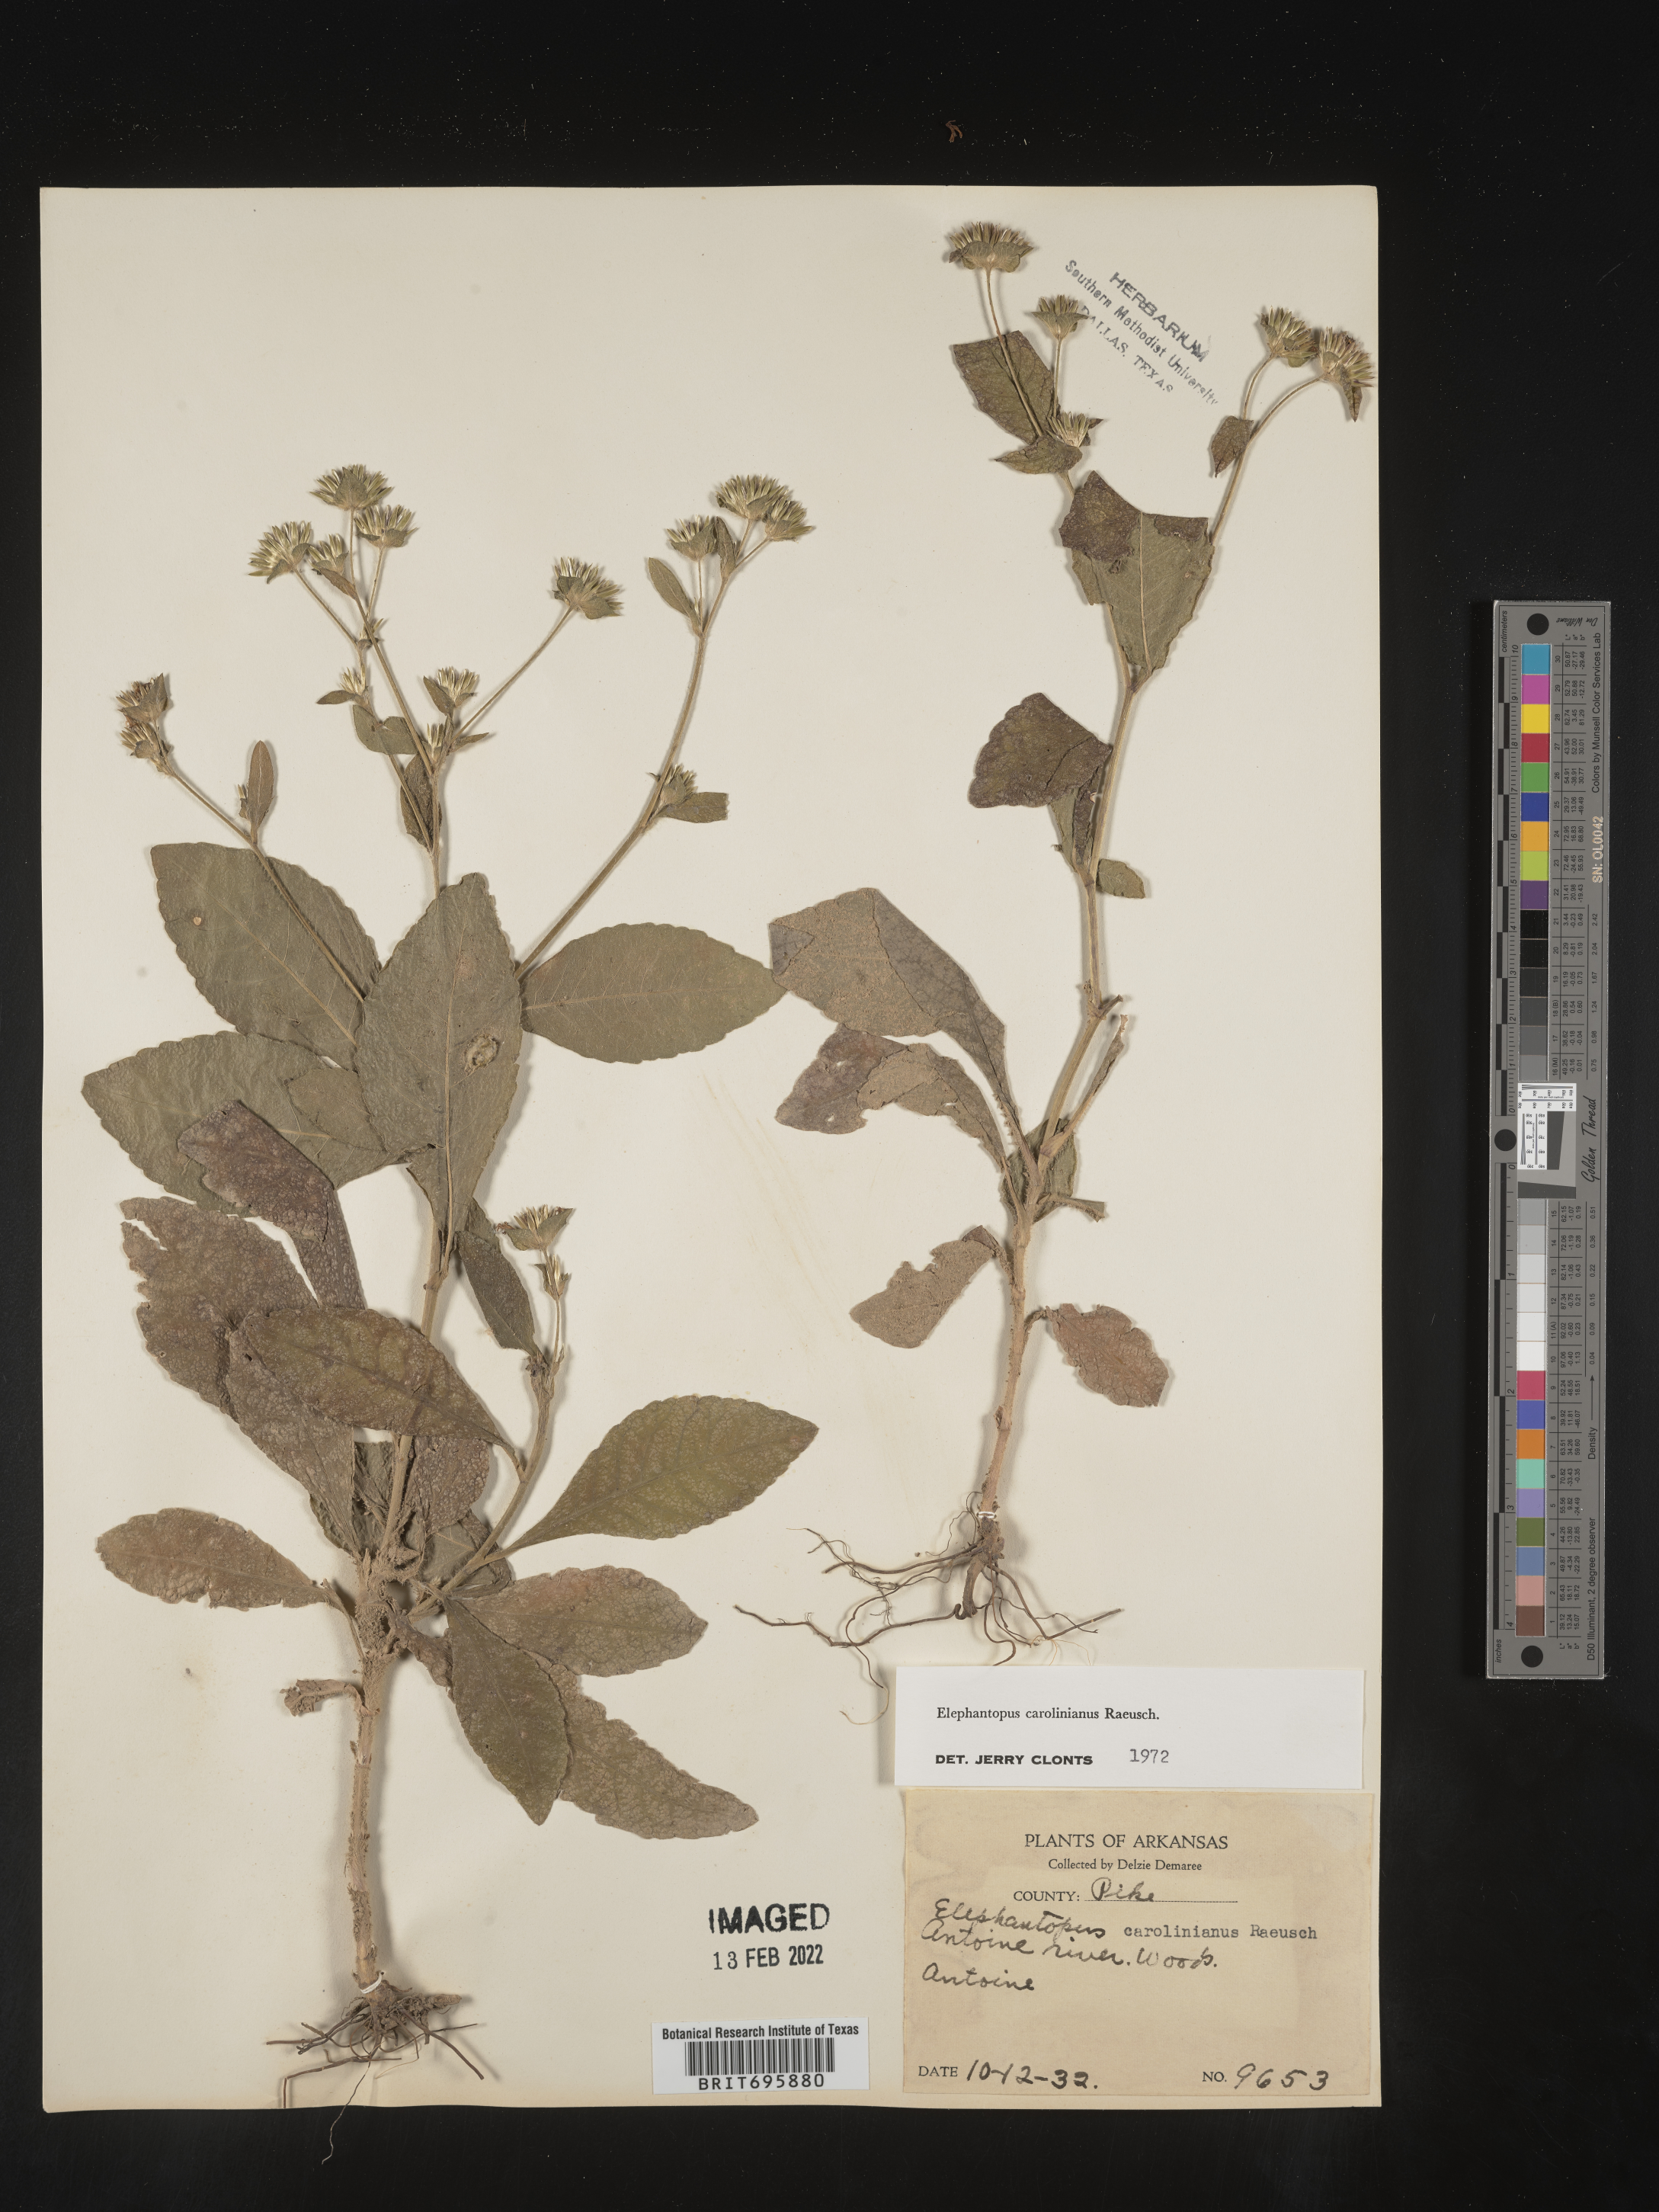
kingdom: Plantae
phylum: Tracheophyta
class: Magnoliopsida
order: Asterales
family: Asteraceae
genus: Elephantopus
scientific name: Elephantopus carolinianus
